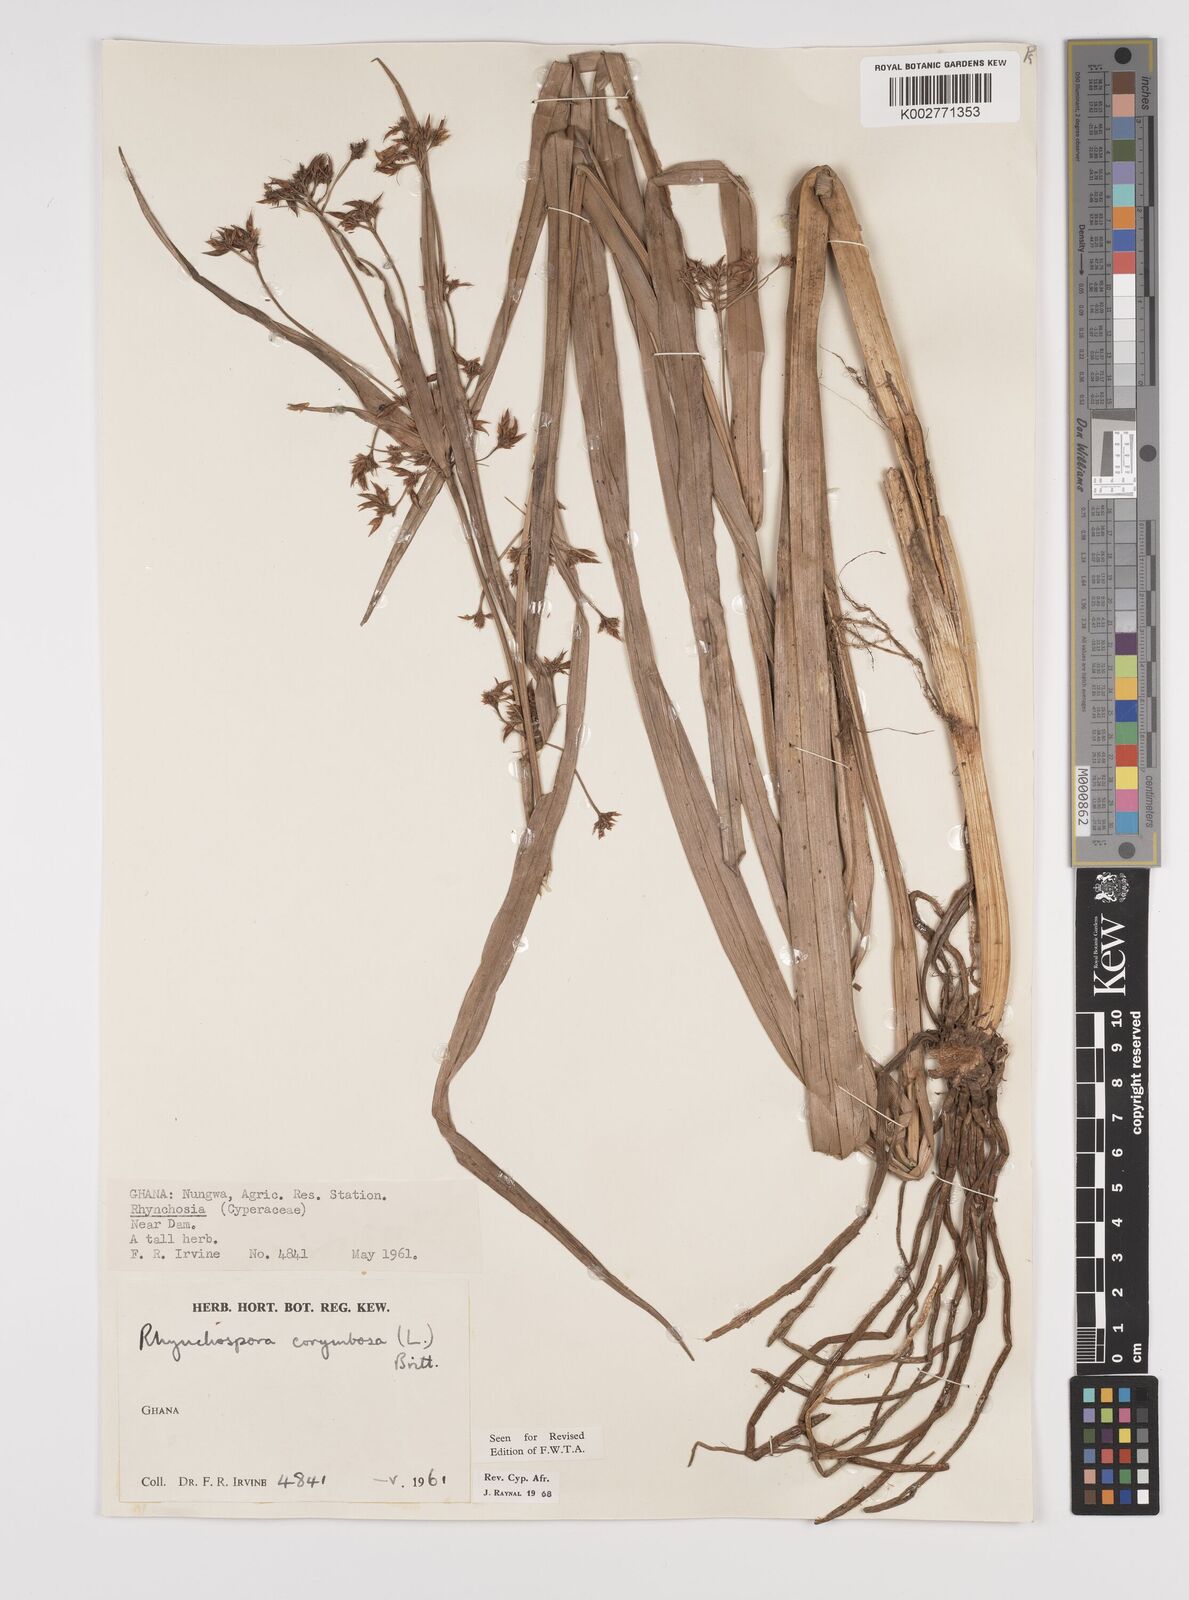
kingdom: Plantae
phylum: Tracheophyta
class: Liliopsida
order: Poales
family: Cyperaceae
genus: Rhynchospora
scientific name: Rhynchospora corymbosa
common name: Golden beak sedge
